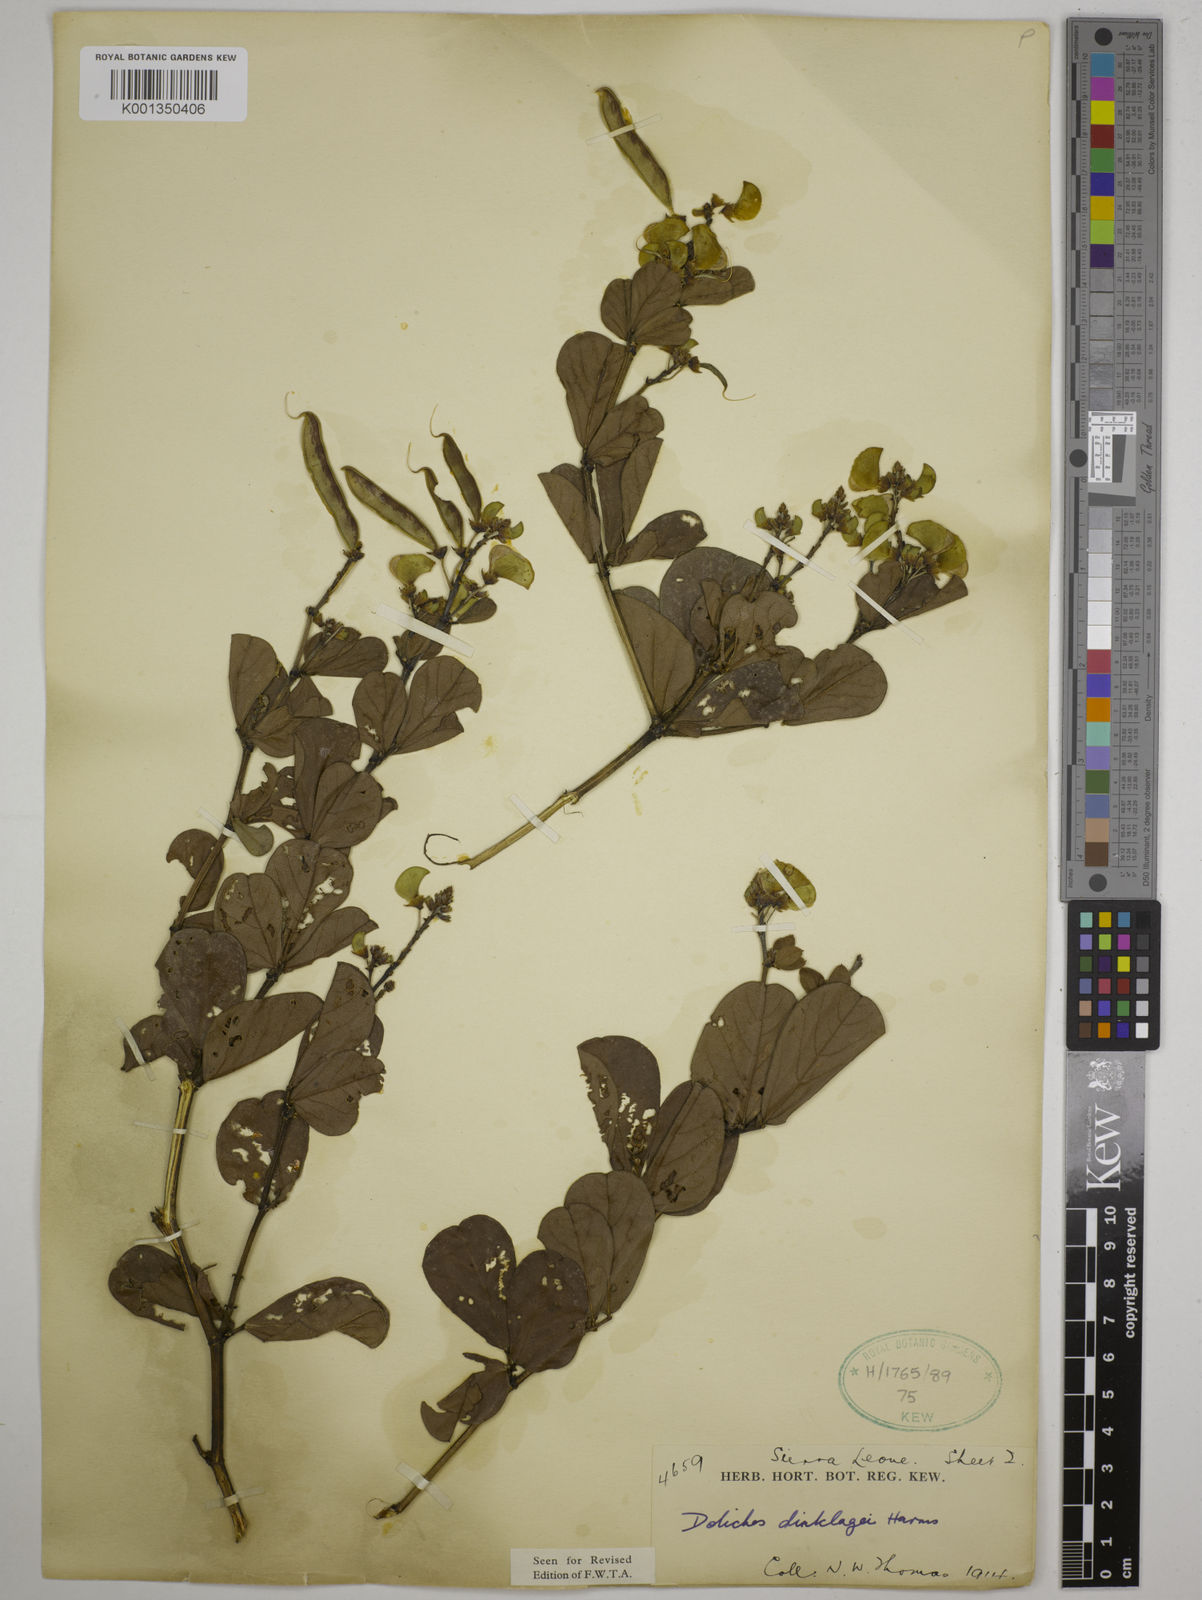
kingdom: Plantae
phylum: Tracheophyta
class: Magnoliopsida
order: Fabales
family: Fabaceae
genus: Dolichos
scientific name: Dolichos dinklagei
